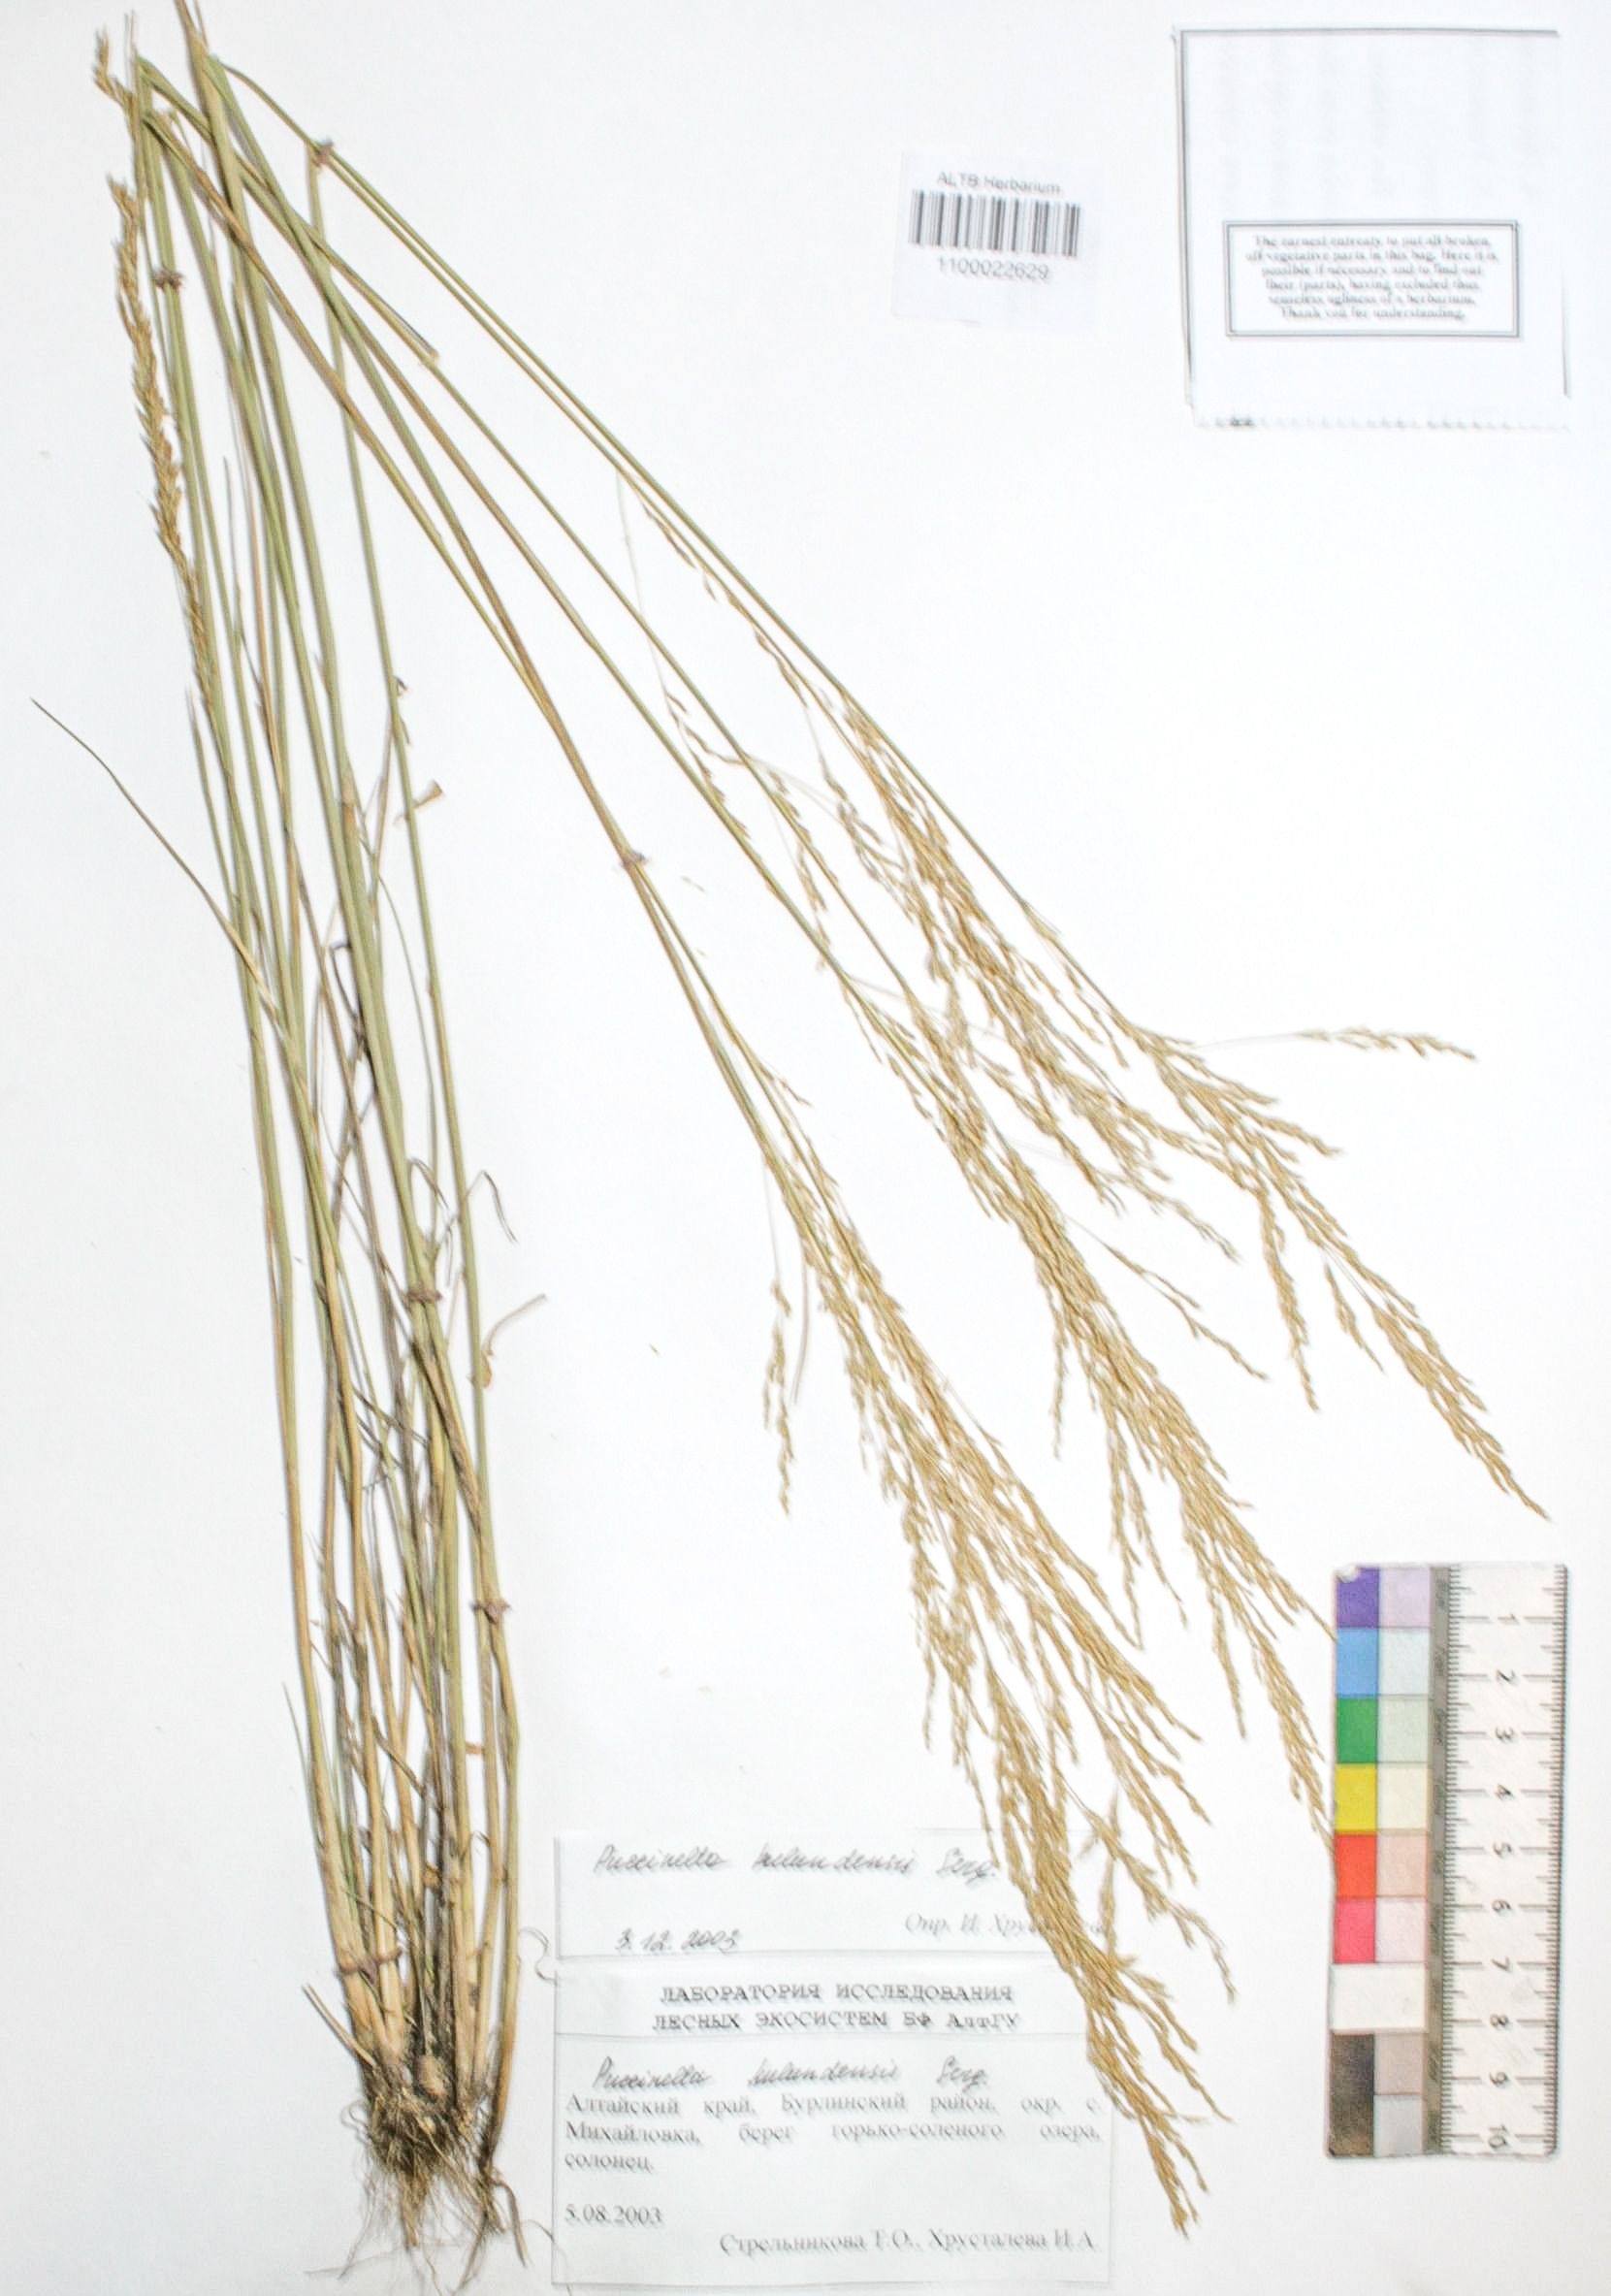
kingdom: Plantae
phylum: Tracheophyta
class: Liliopsida
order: Poales
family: Poaceae
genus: Puccinellia
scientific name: Puccinellia manchuriensis
